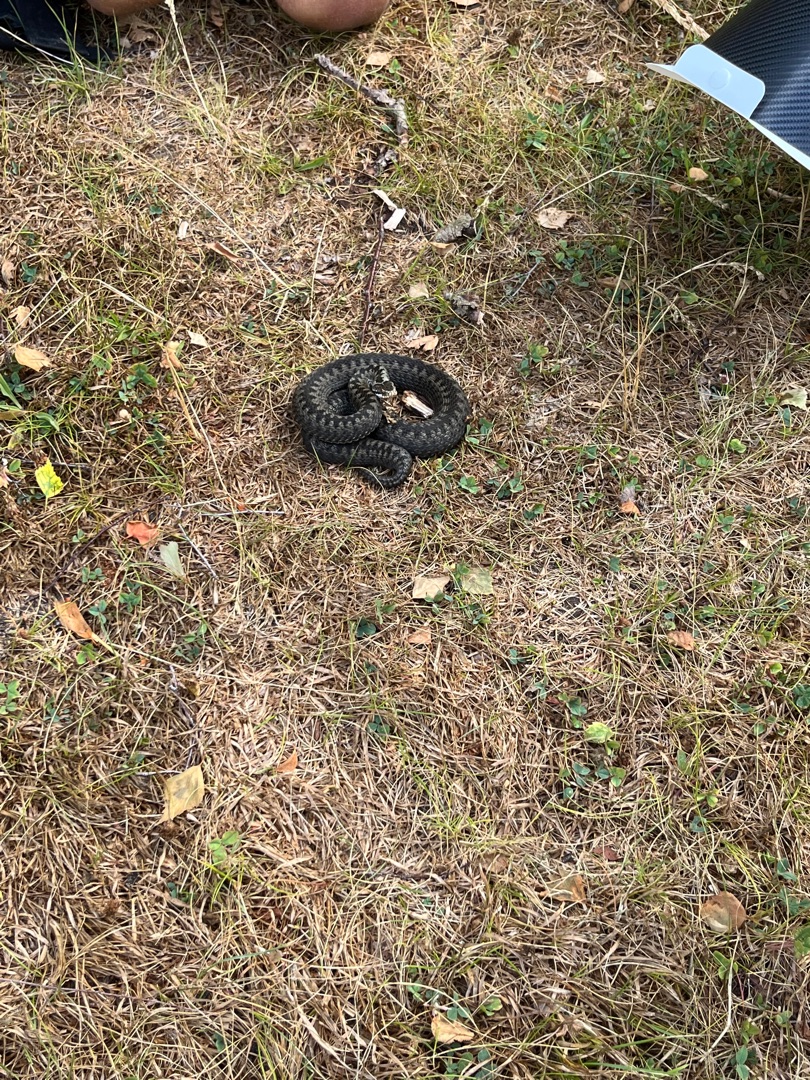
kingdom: Animalia
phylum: Chordata
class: Squamata
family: Viperidae
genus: Vipera
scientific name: Vipera berus
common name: Hugorm
